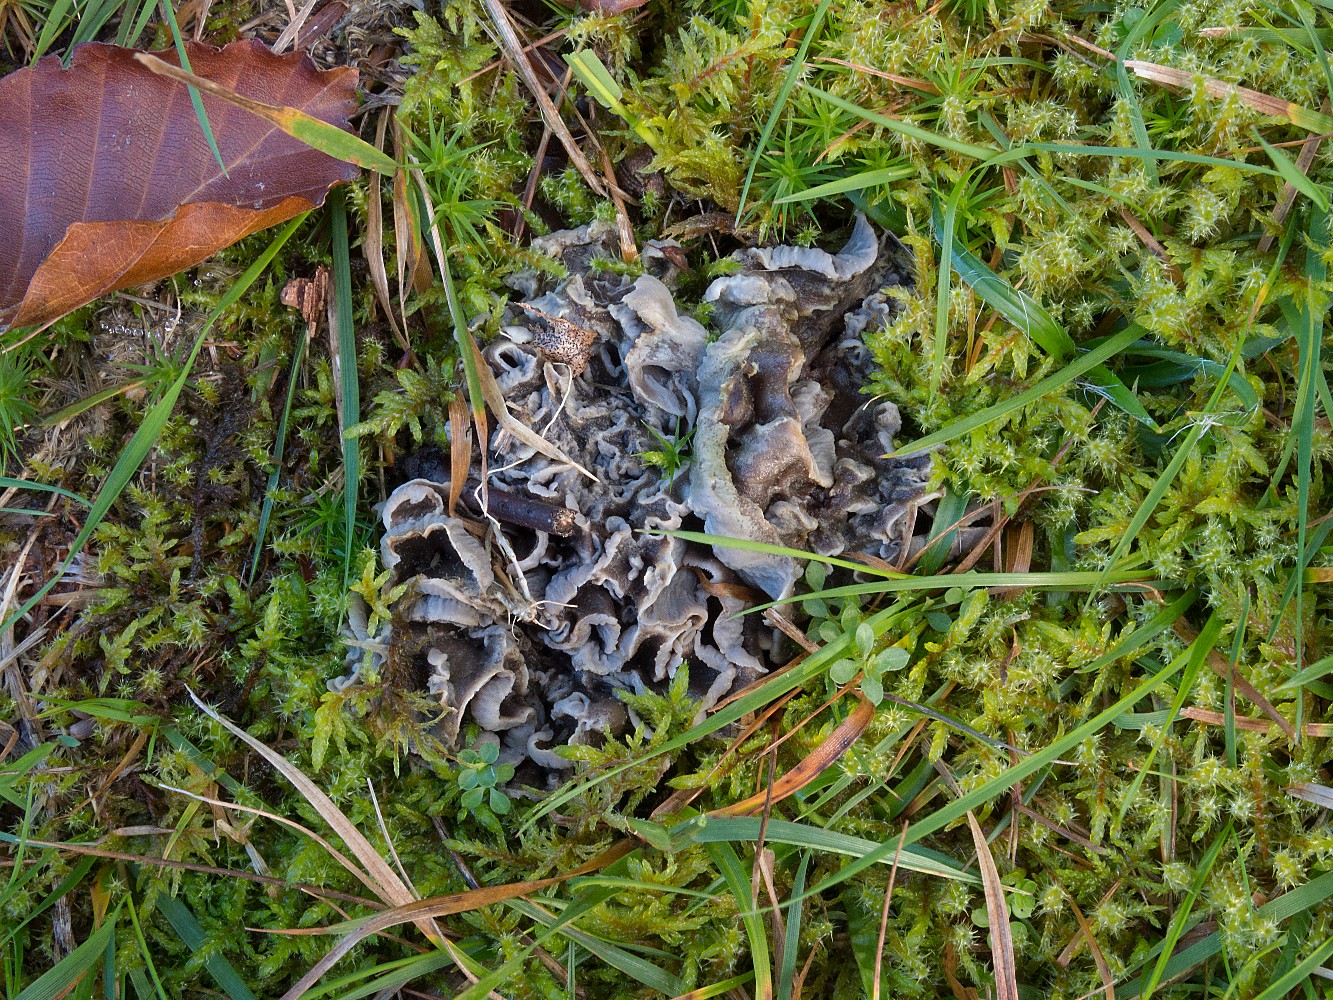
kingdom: Fungi
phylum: Basidiomycota
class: Agaricomycetes
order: Cantharellales
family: Hydnaceae
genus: Craterellus
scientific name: Craterellus undulatus
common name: liden kantarel
